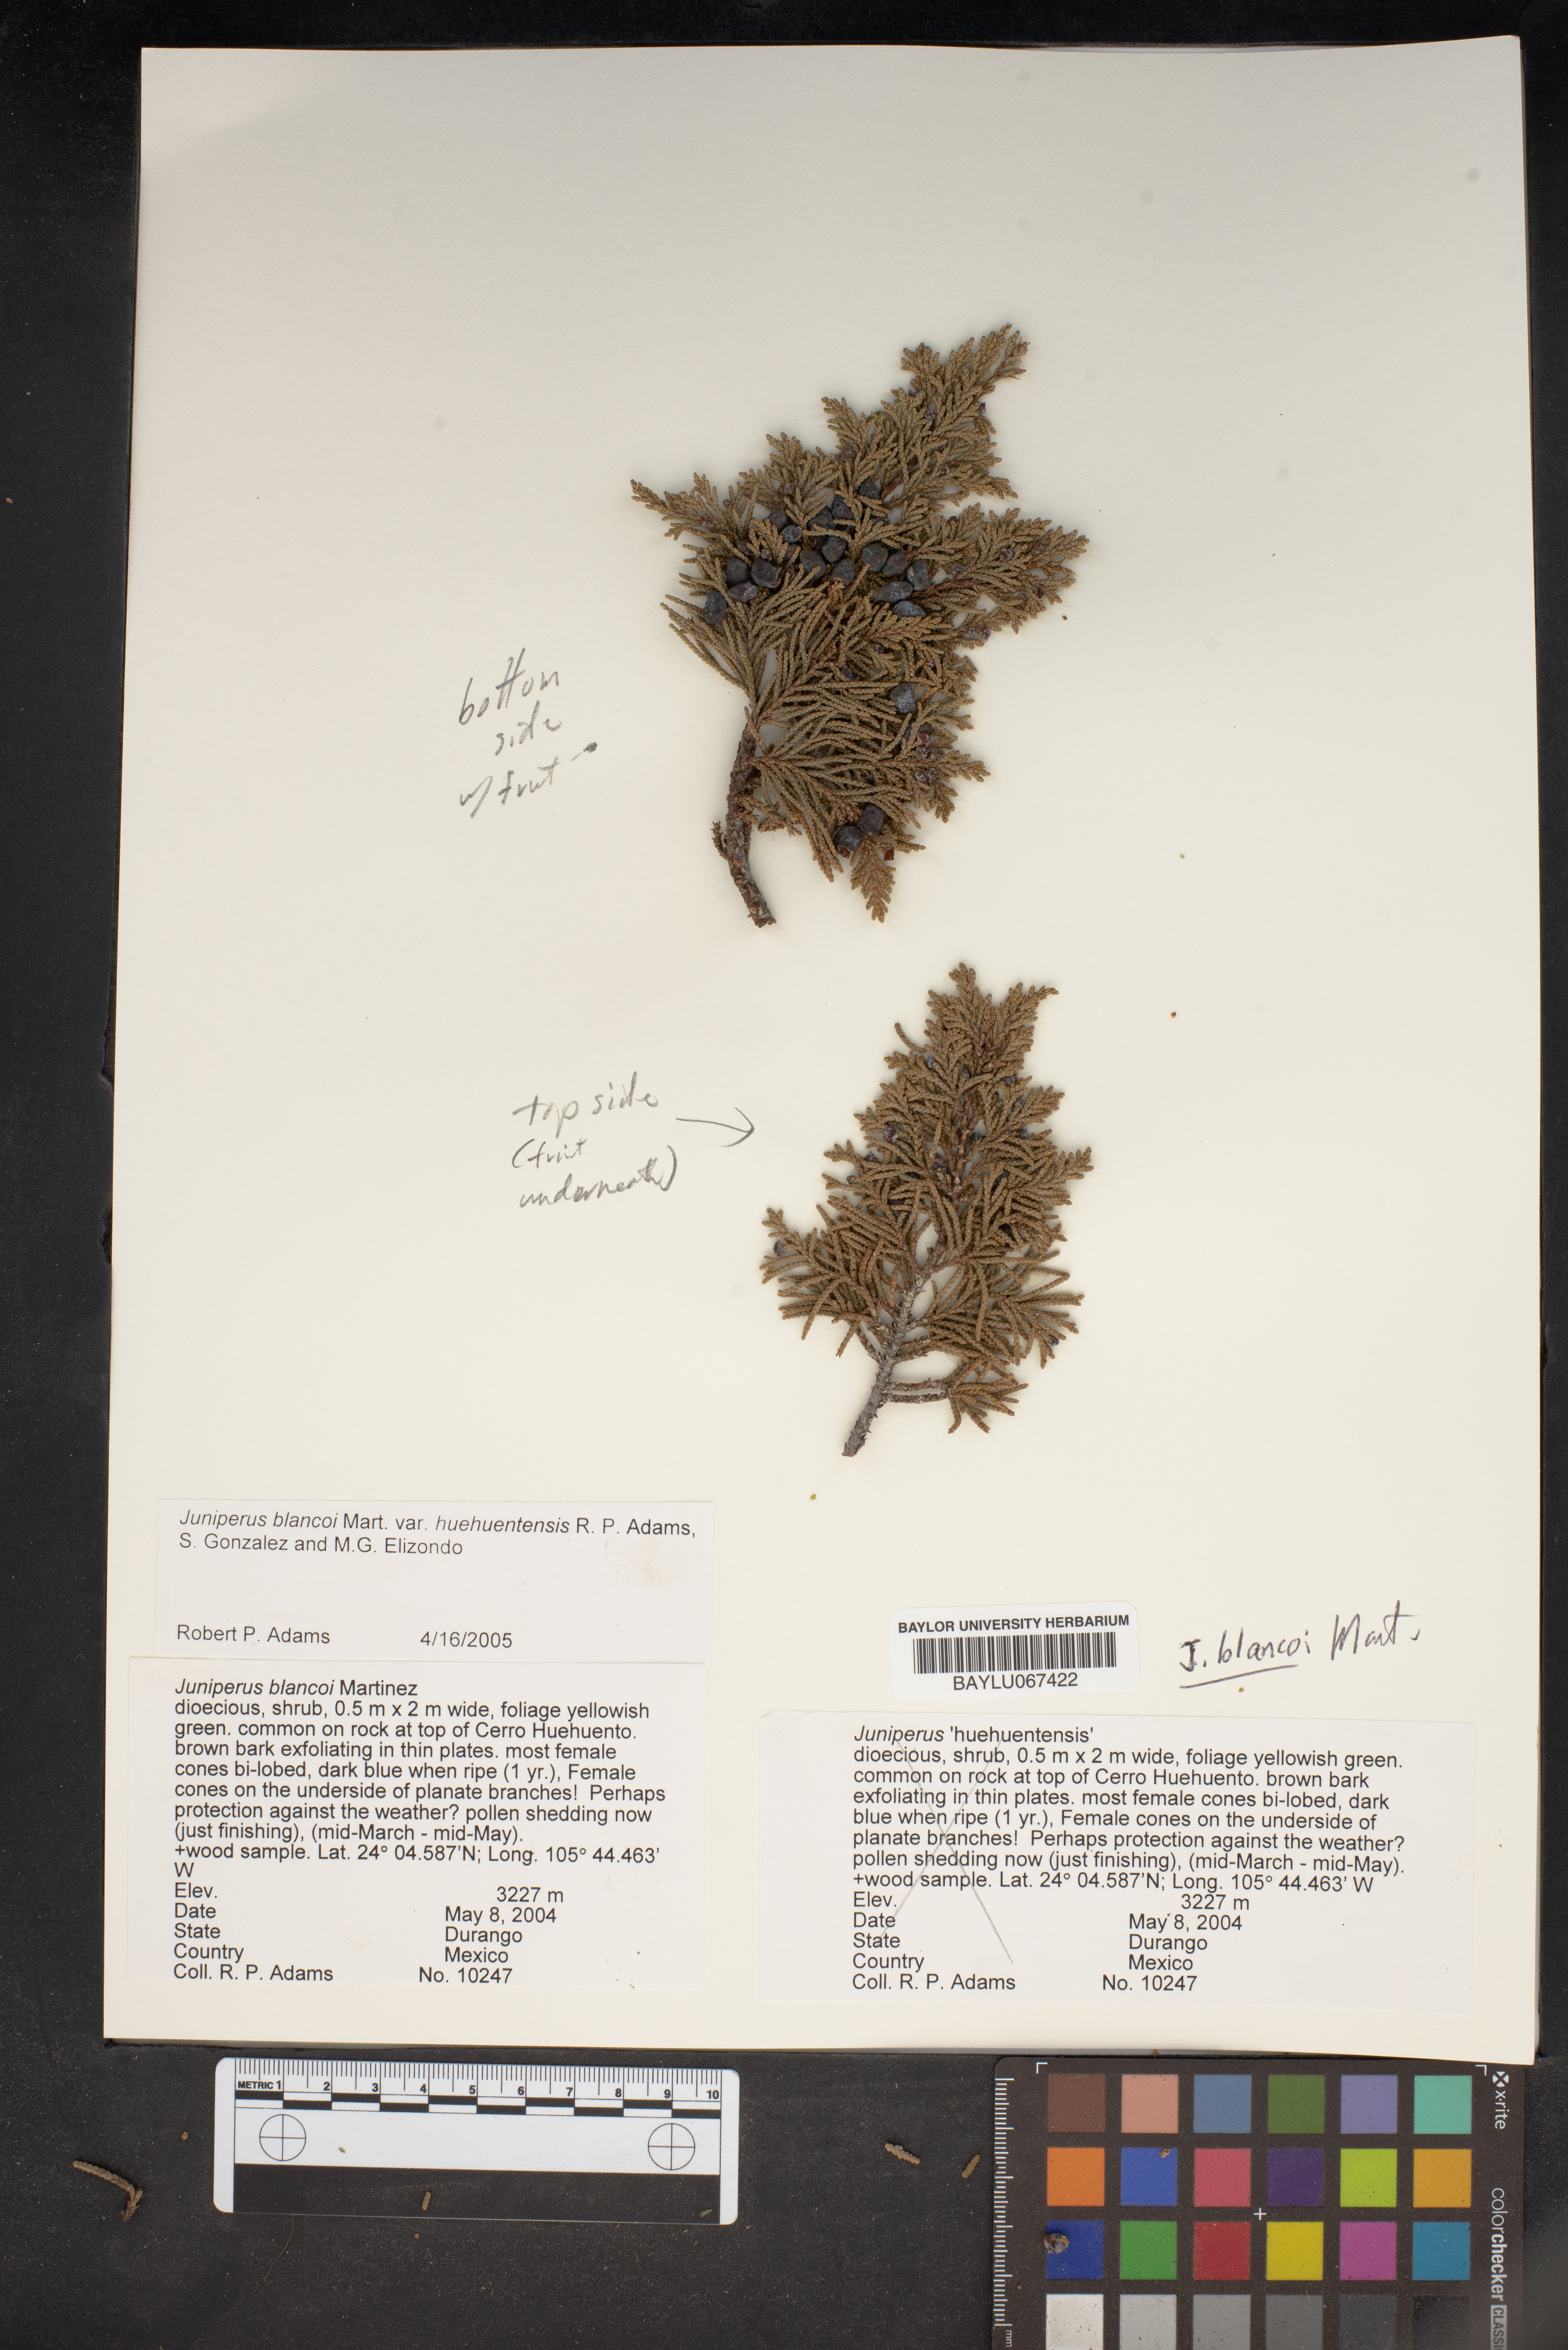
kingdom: Plantae
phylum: Tracheophyta
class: Pinopsida
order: Pinales
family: Cupressaceae
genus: Juniperus
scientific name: Juniperus blancoi
